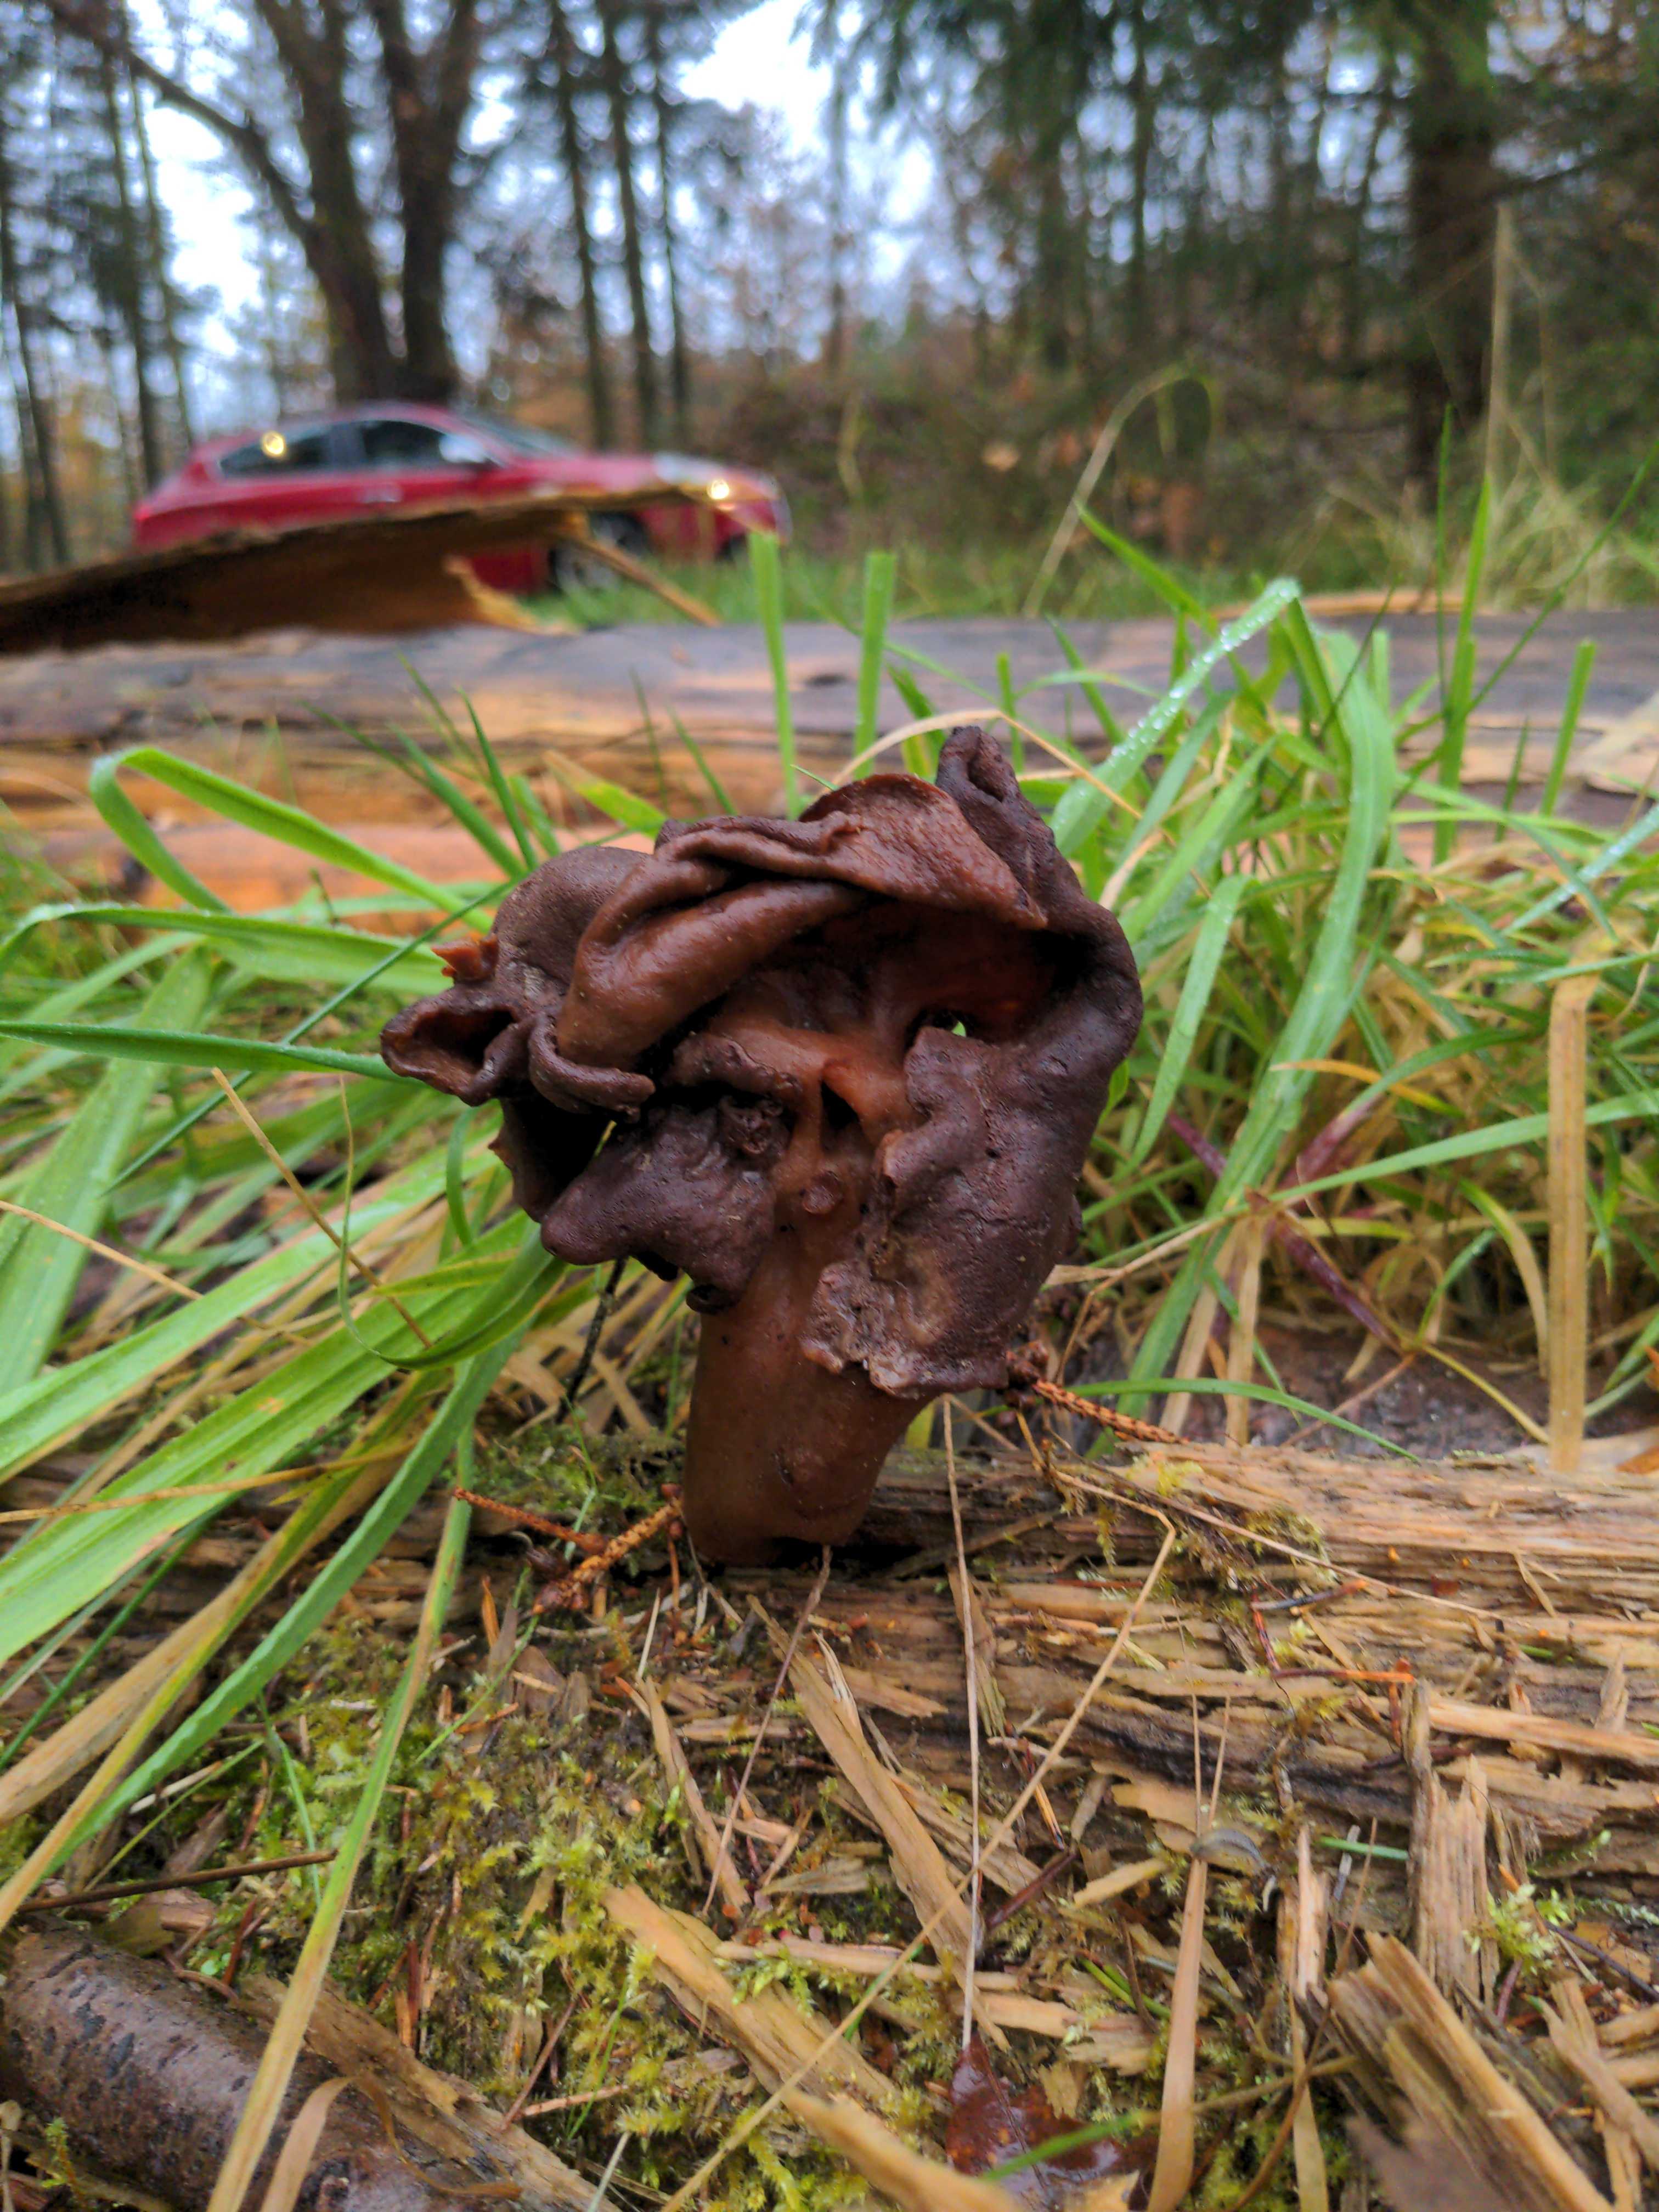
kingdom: Fungi
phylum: Ascomycota
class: Pezizomycetes
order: Pezizales
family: Discinaceae
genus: Gyromitra
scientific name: Gyromitra infula
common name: bispehue-stenmorkel
